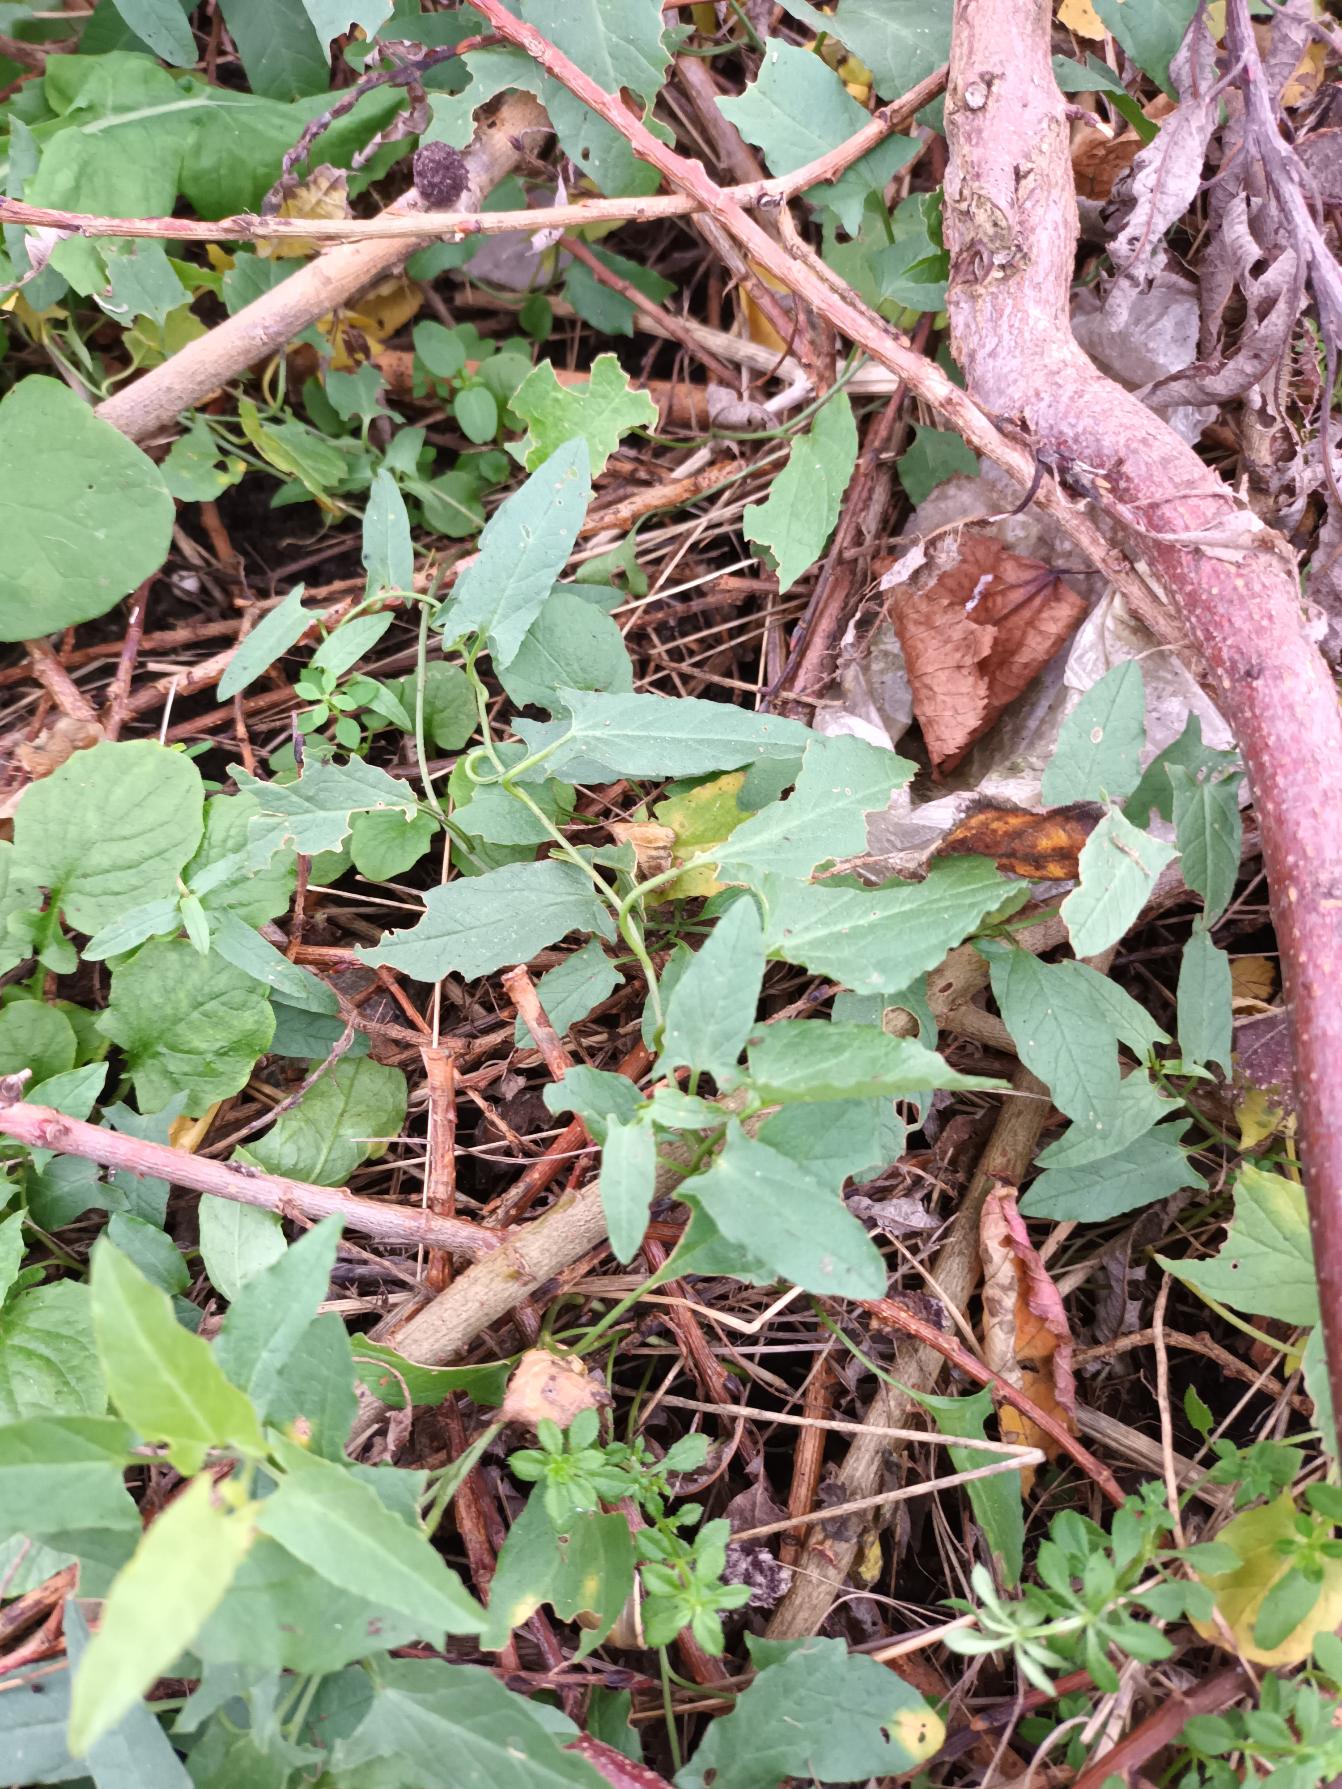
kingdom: Plantae
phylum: Tracheophyta
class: Magnoliopsida
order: Solanales
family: Convolvulaceae
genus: Convolvulus
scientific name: Convolvulus arvensis
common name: Ager-snerle
